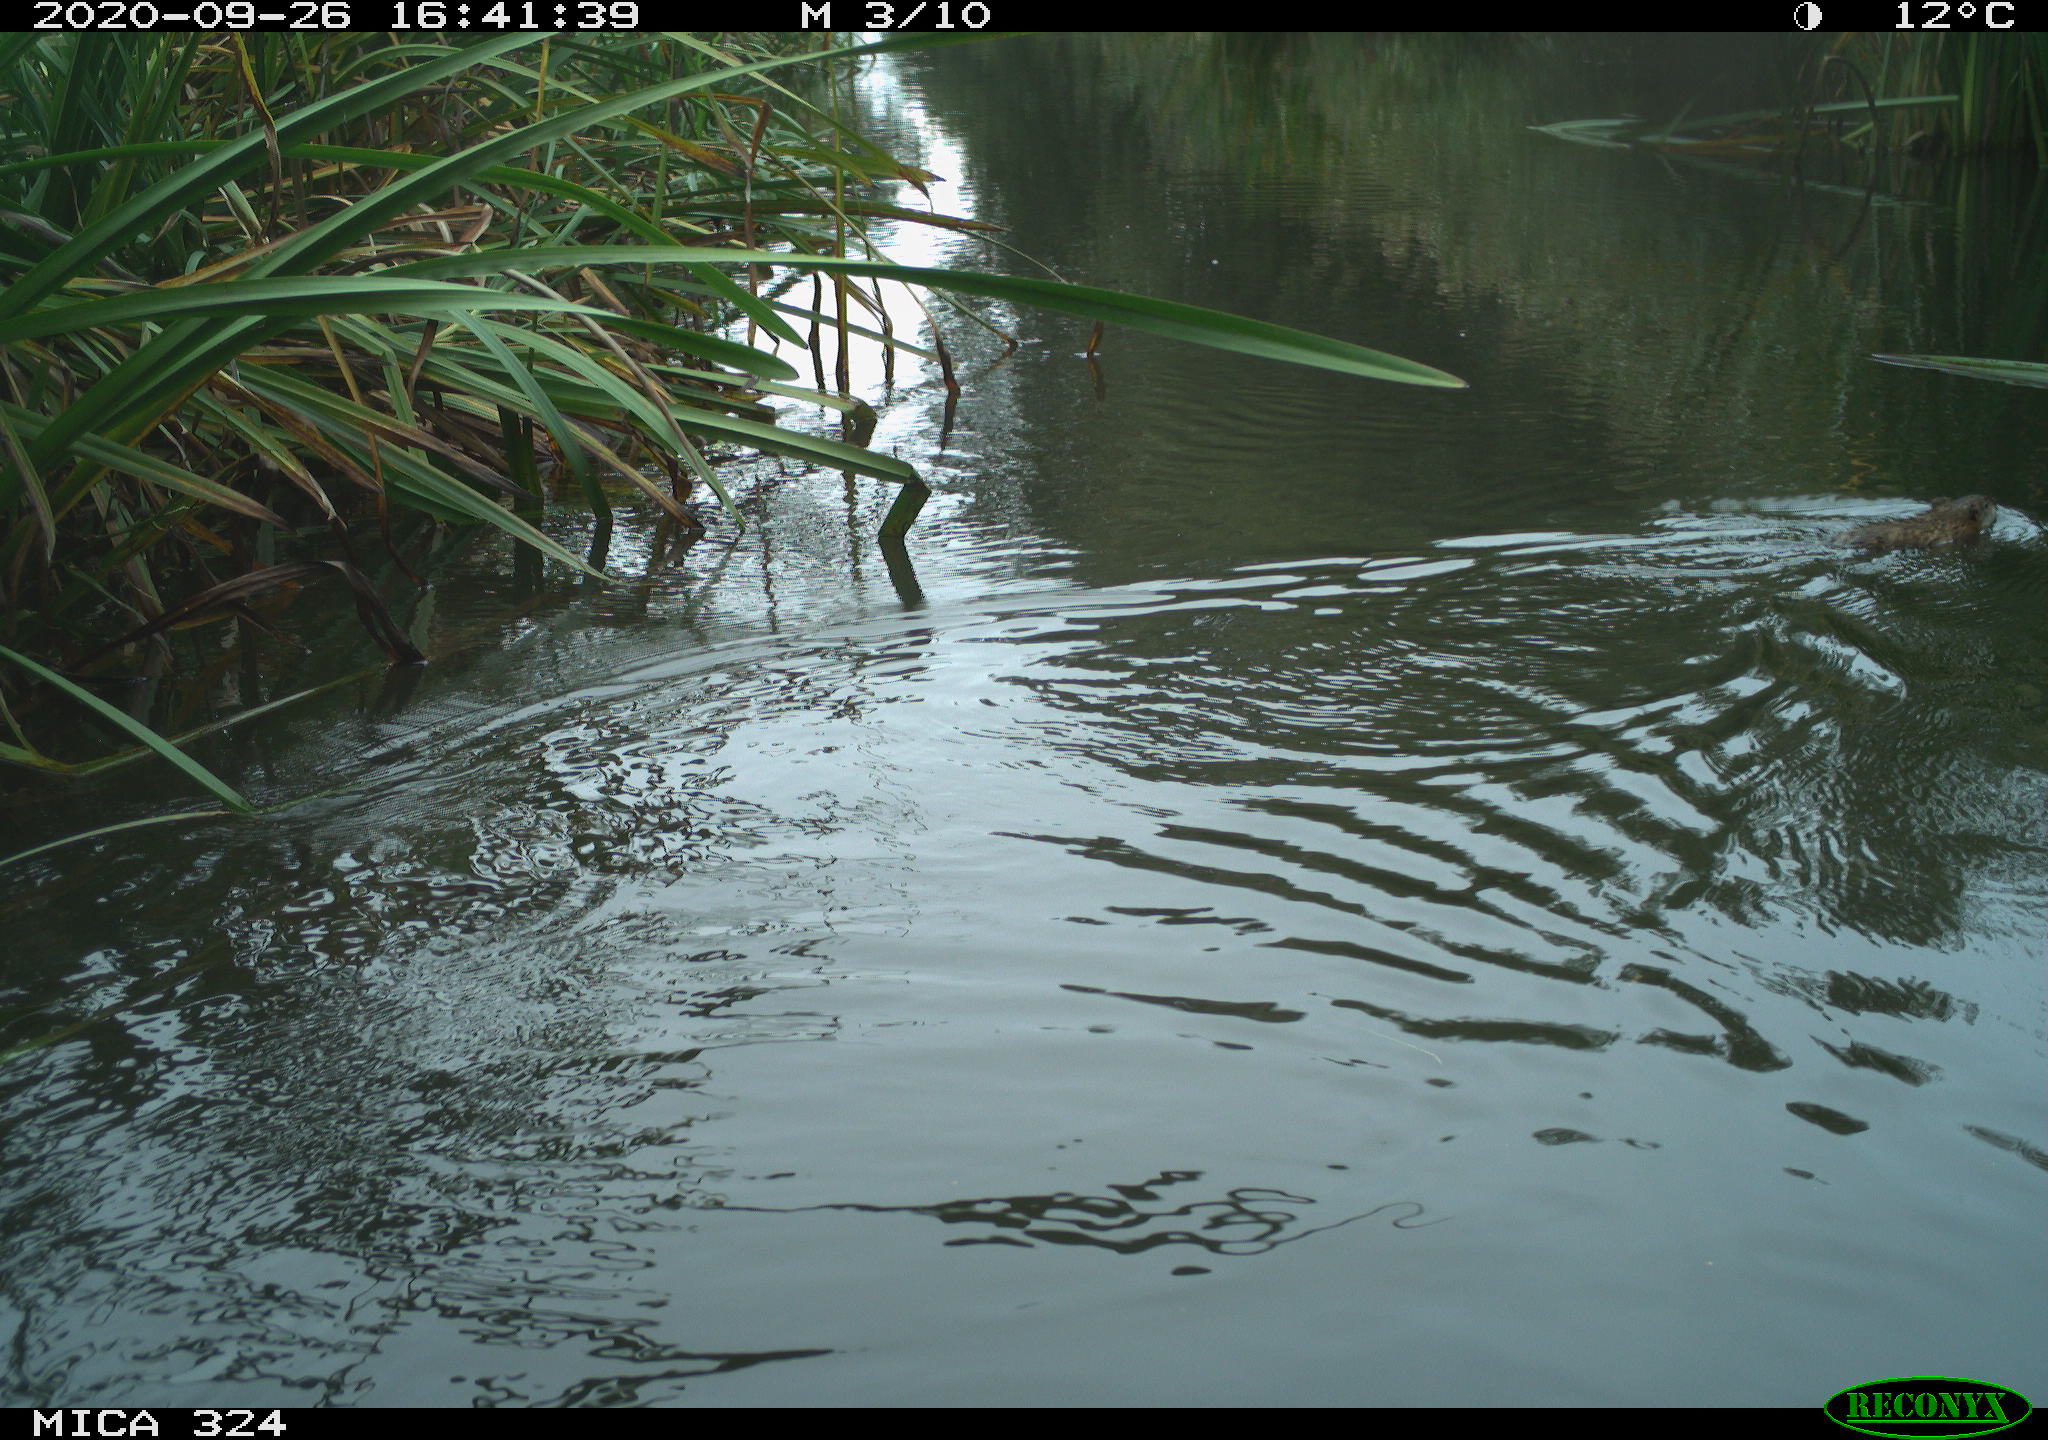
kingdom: Animalia
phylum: Chordata
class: Mammalia
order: Rodentia
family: Cricetidae
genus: Ondatra
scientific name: Ondatra zibethicus
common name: Muskrat
